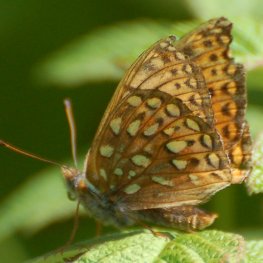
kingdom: Animalia
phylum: Arthropoda
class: Insecta
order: Lepidoptera
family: Nymphalidae
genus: Speyeria
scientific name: Speyeria atlantis
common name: Atlantis Fritillary
